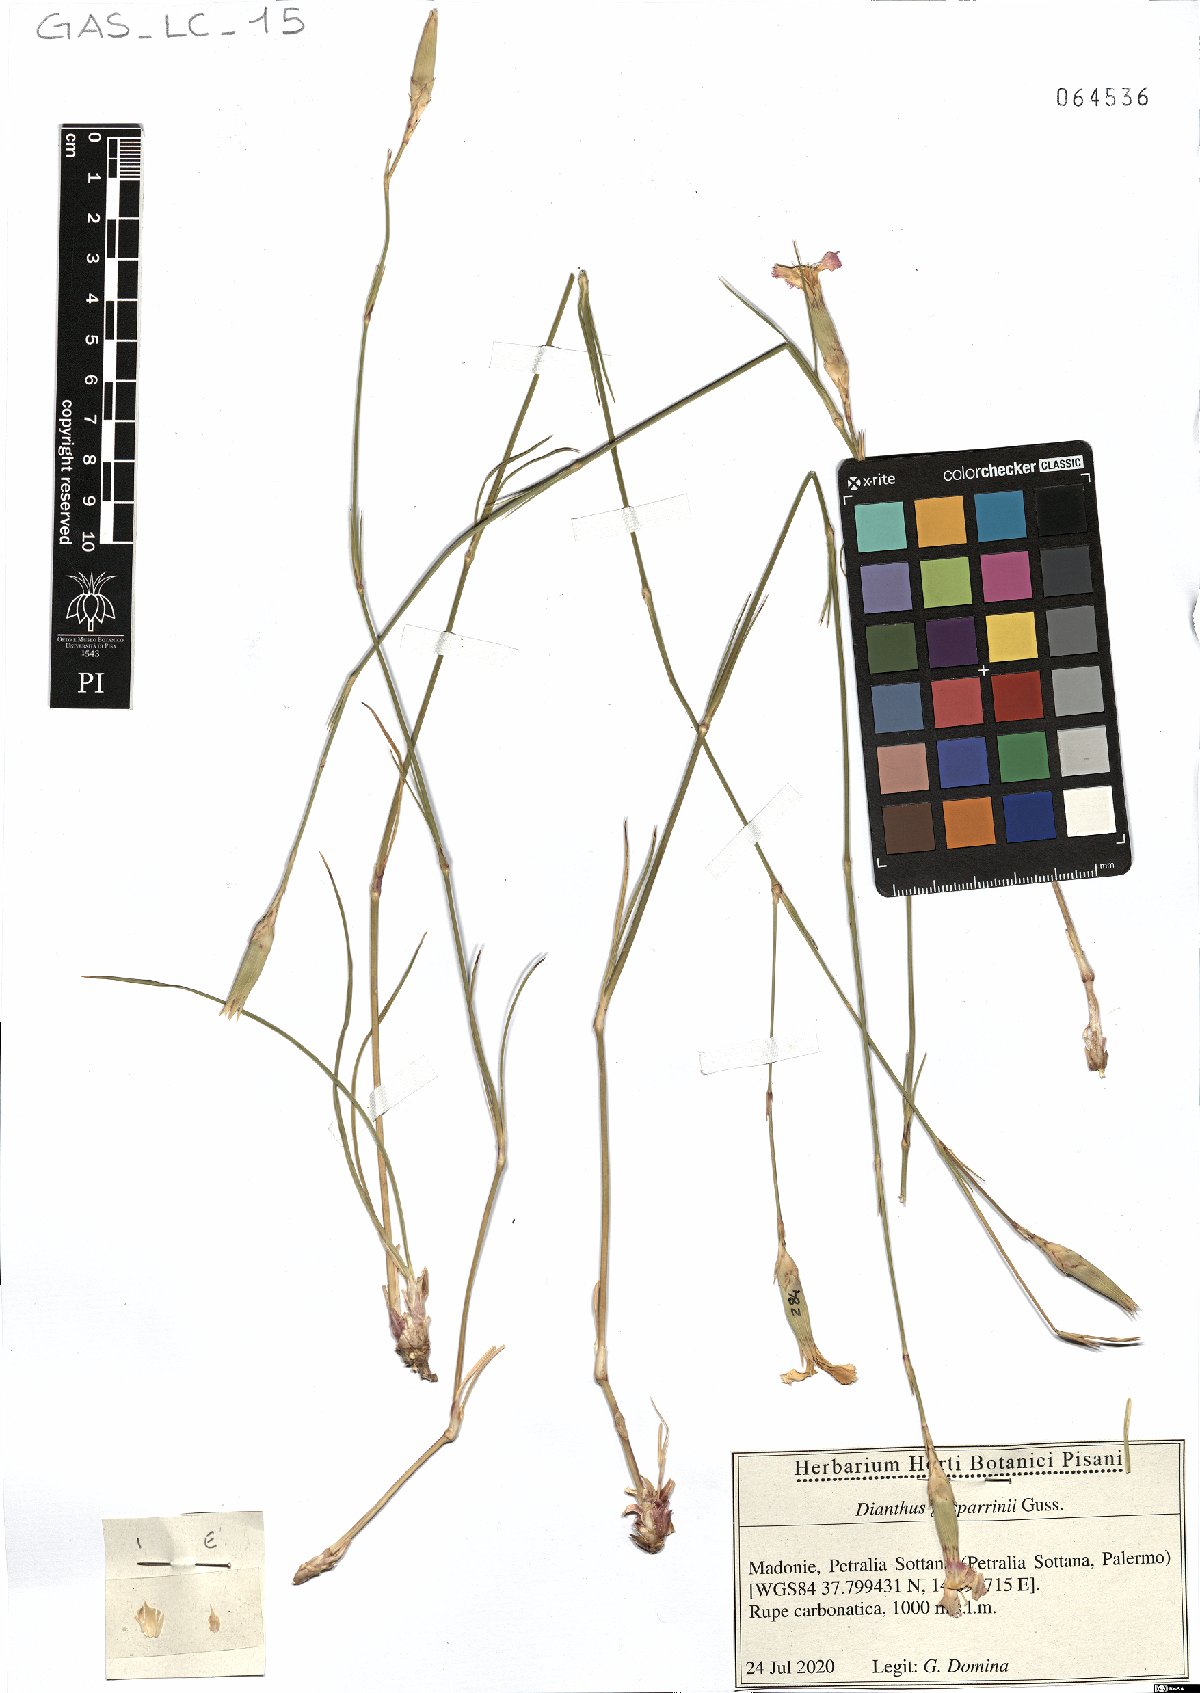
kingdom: Plantae
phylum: Tracheophyta
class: Magnoliopsida
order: Caryophyllales
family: Caryophyllaceae
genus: Dianthus
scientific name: Dianthus gasparrinii
